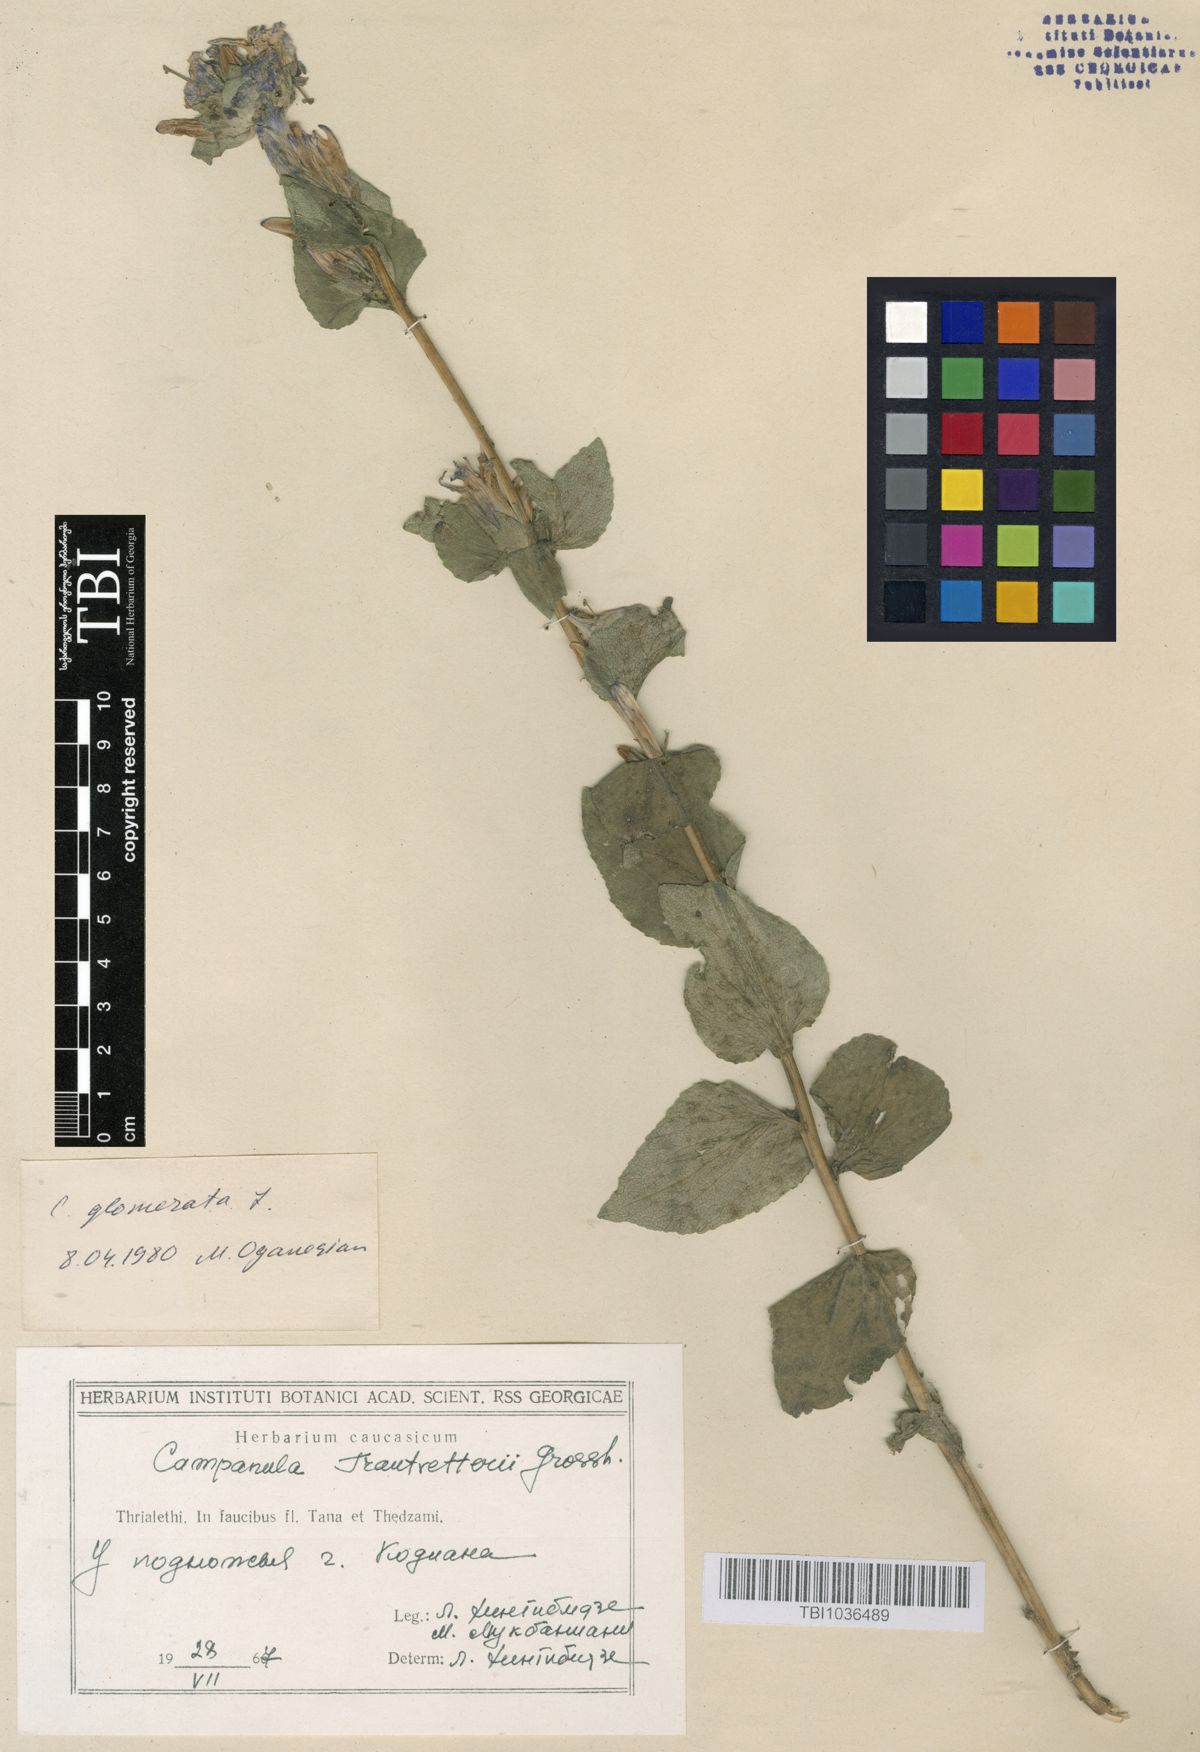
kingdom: Plantae
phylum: Tracheophyta
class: Magnoliopsida
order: Asterales
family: Campanulaceae
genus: Campanula
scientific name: Campanula glomerata
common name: Clustered bellflower
